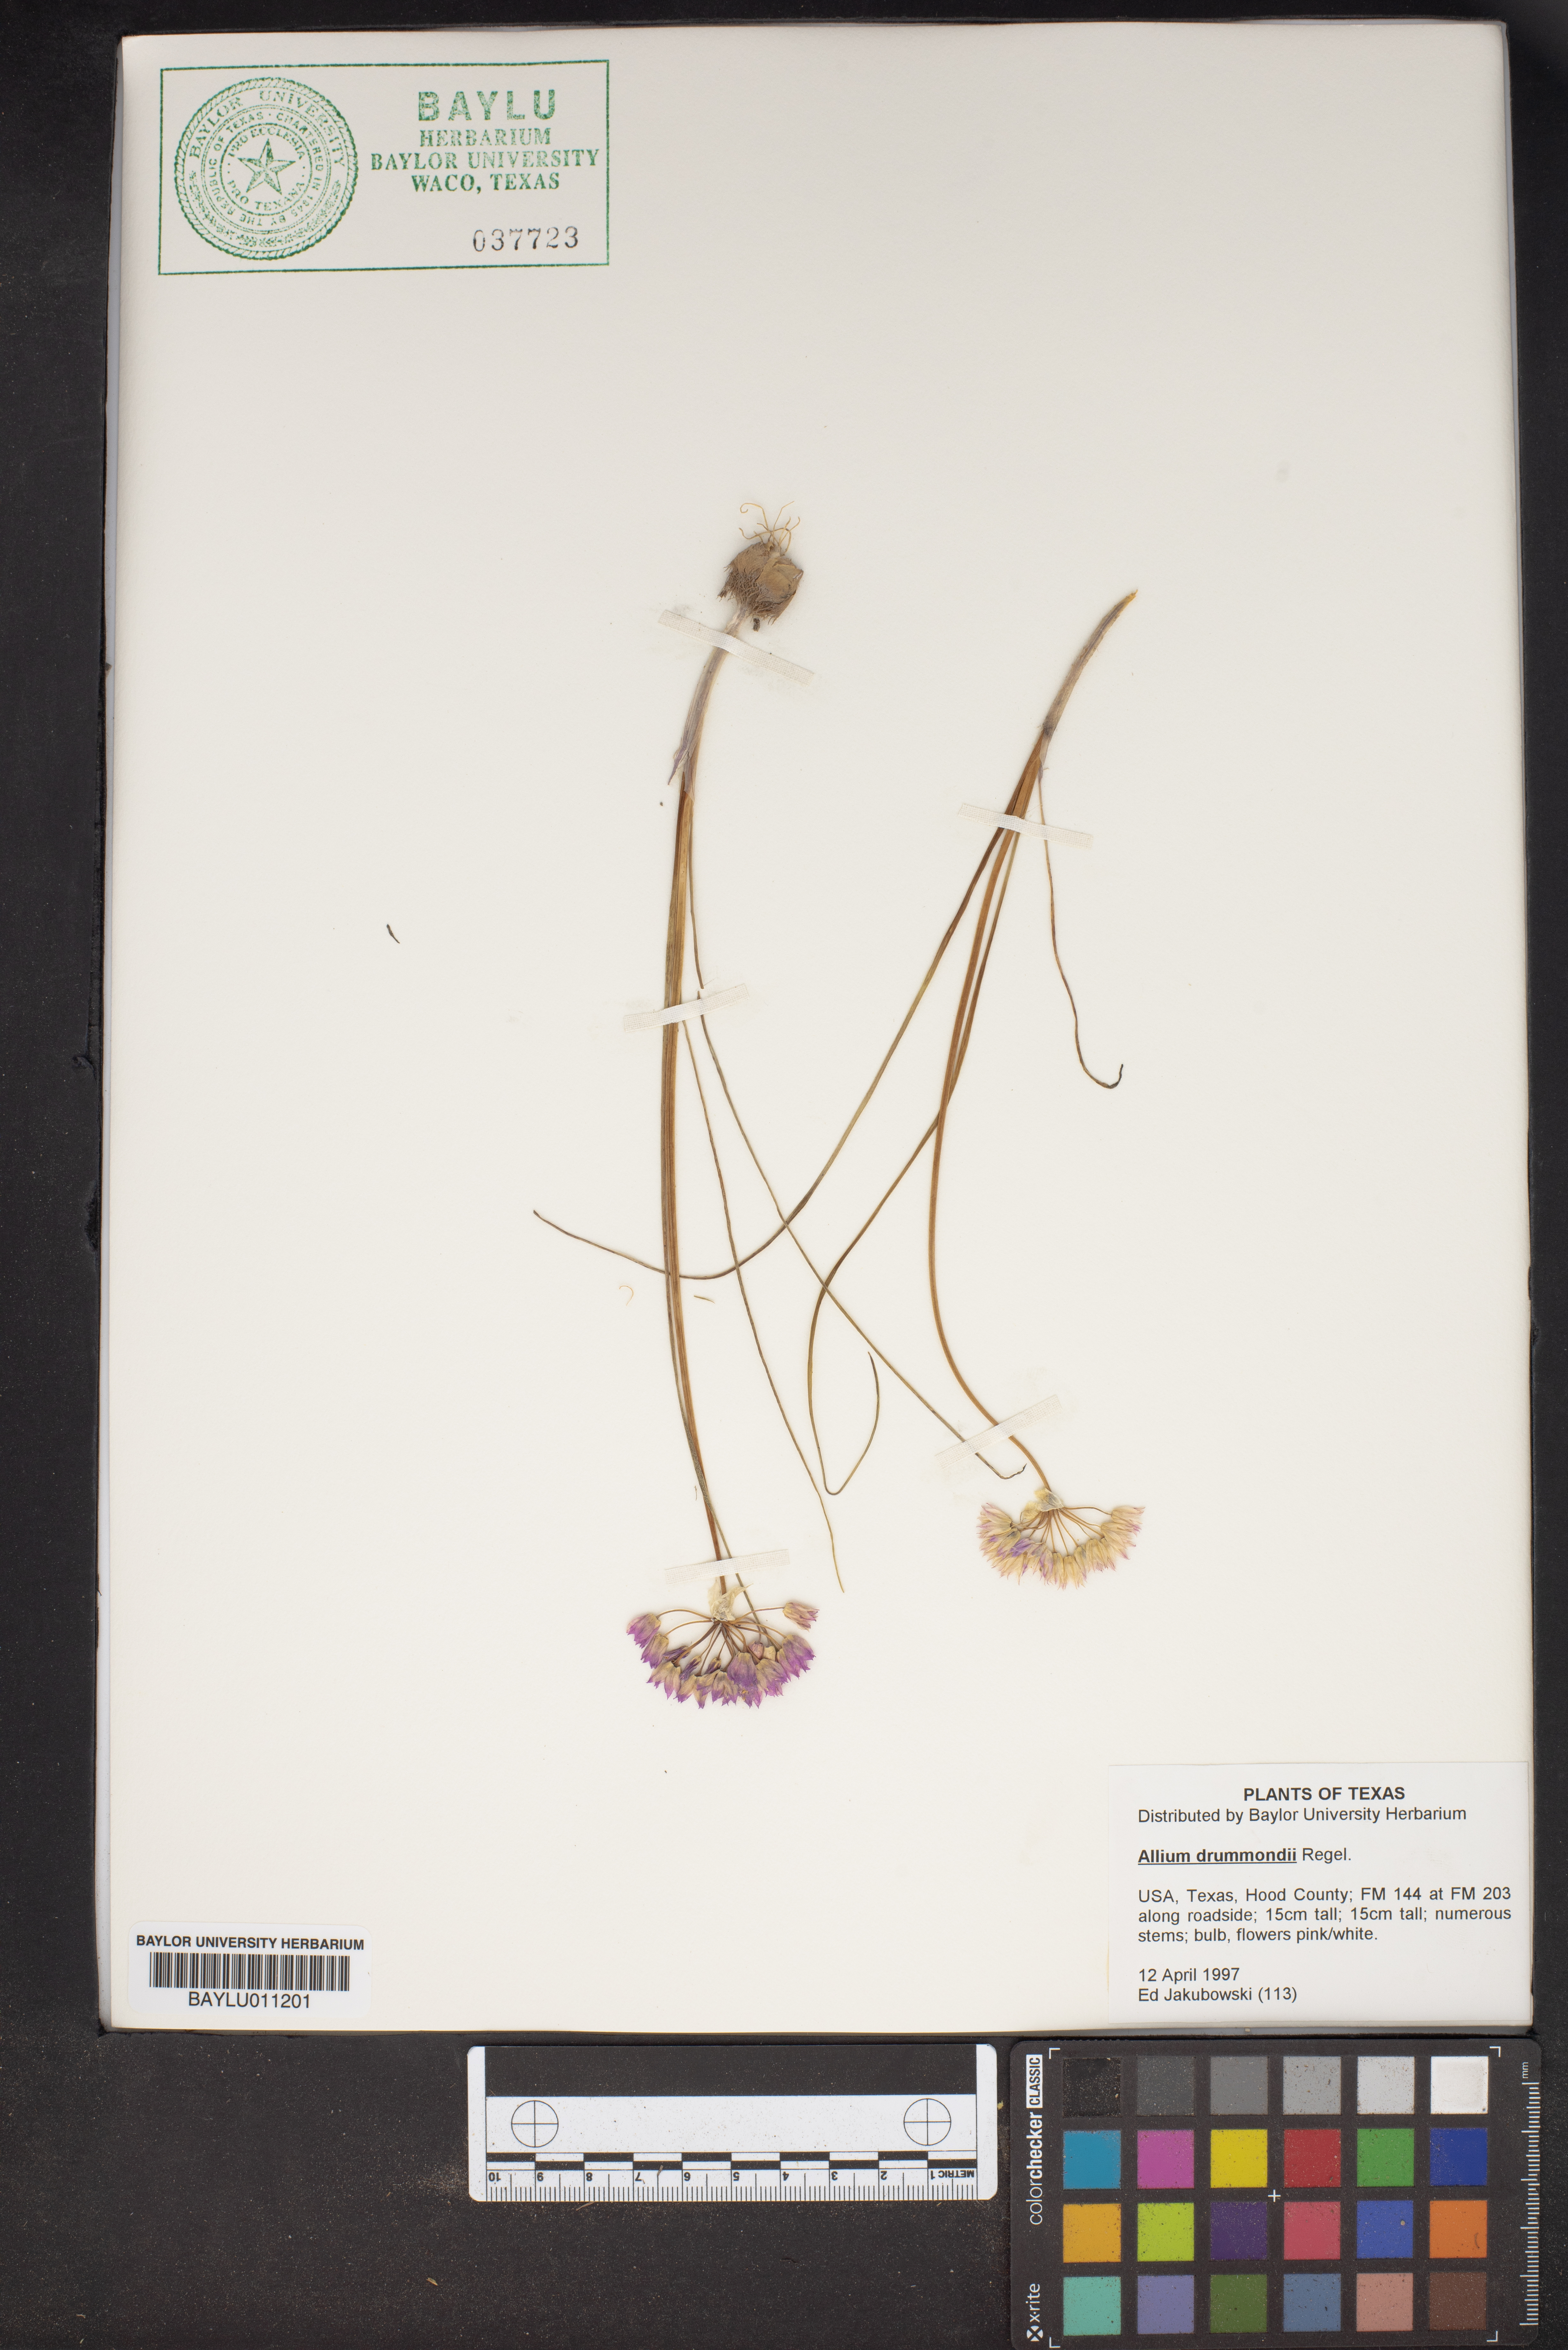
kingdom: Plantae
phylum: Tracheophyta
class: Liliopsida
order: Asparagales
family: Amaryllidaceae
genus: Allium
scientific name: Allium drummondii
